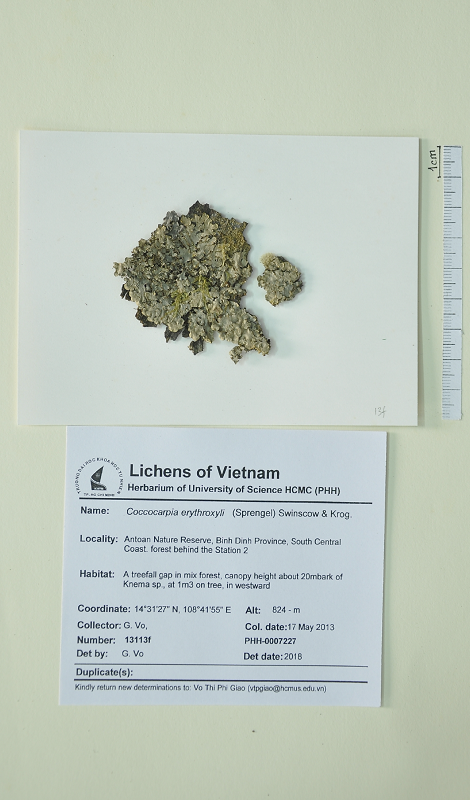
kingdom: Fungi
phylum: Ascomycota
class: Lecanoromycetes
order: Peltigerales
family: Coccocarpiaceae
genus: Coccocarpia
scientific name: Coccocarpia erythroxyli
